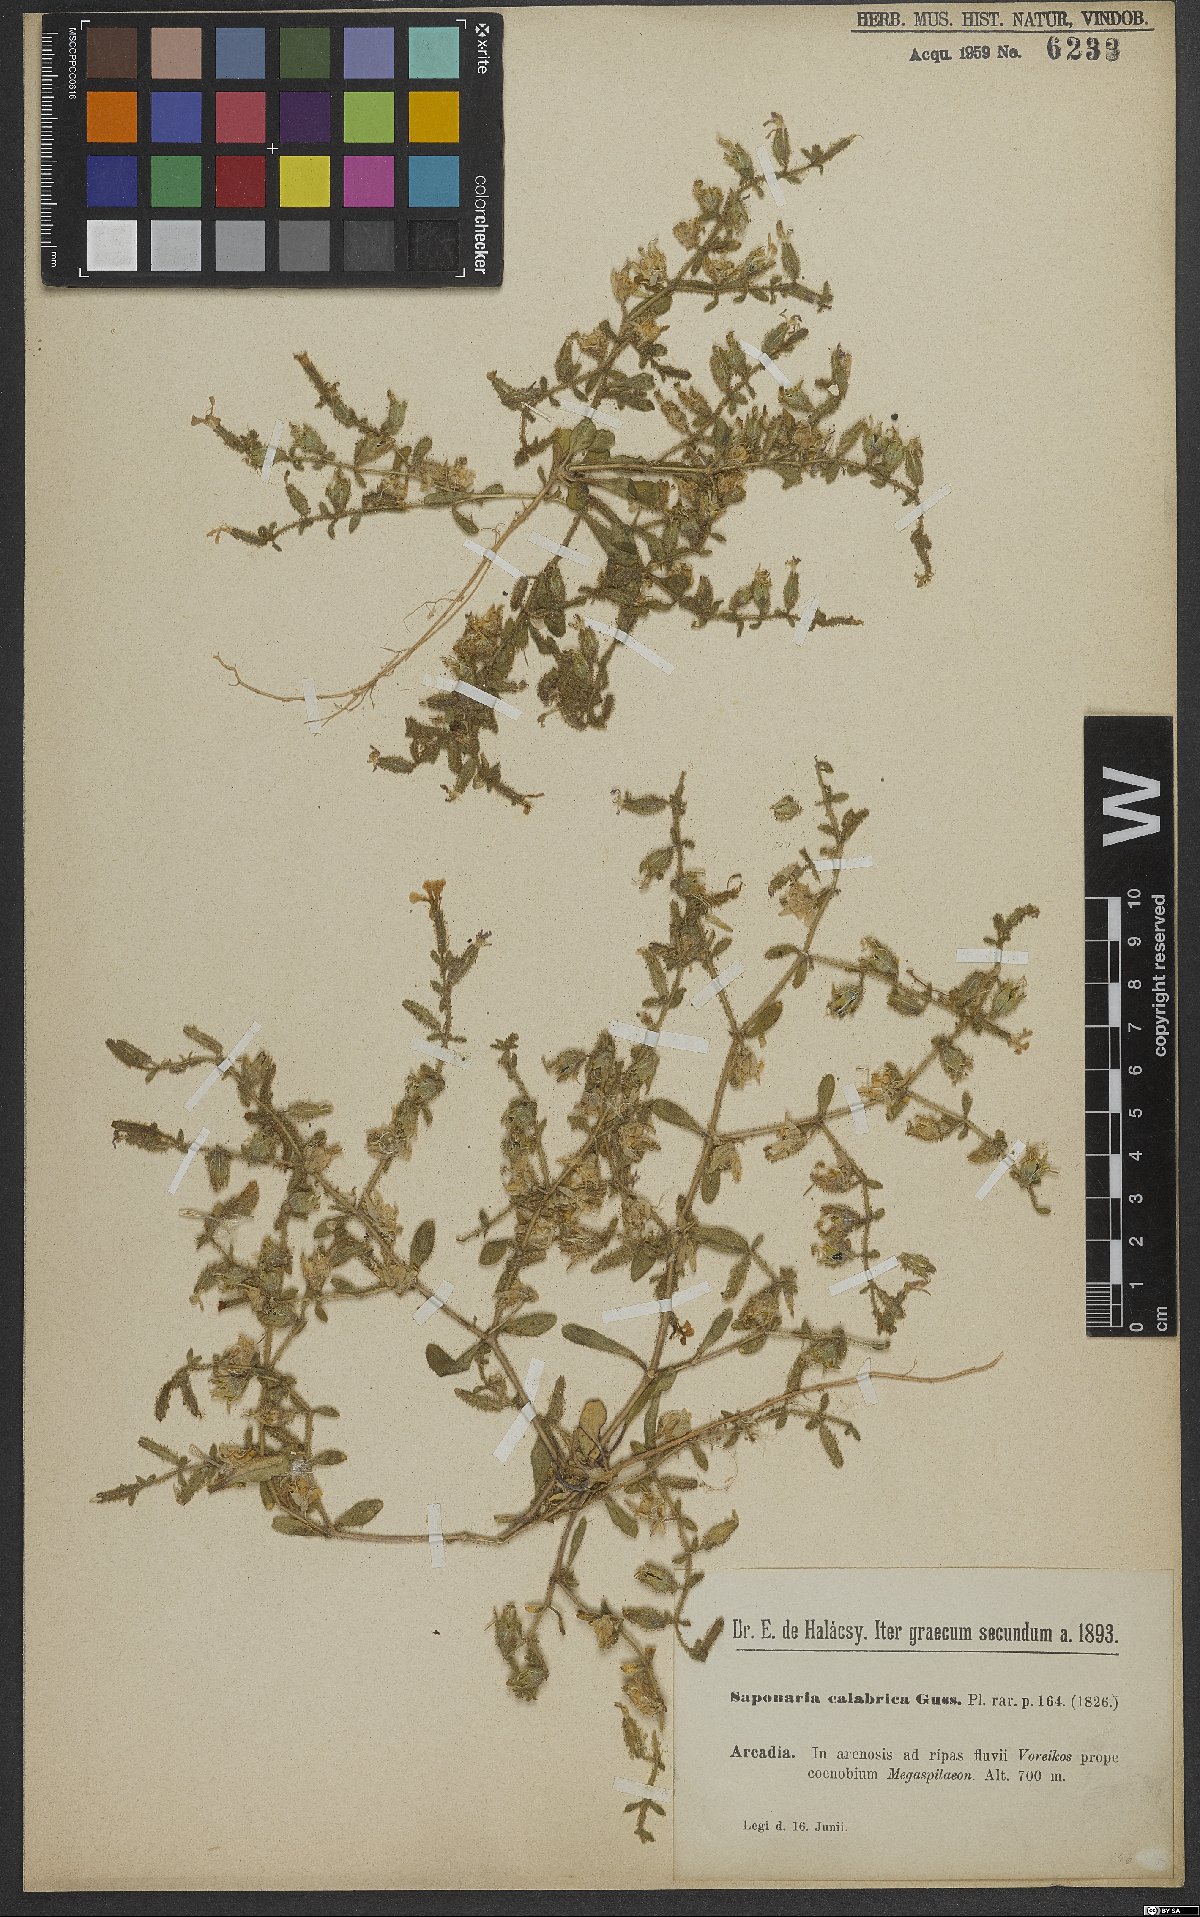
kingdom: Plantae
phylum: Tracheophyta
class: Magnoliopsida
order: Caryophyllales
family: Caryophyllaceae
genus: Saponaria
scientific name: Saponaria calabrica
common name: Adriatic soapwort
